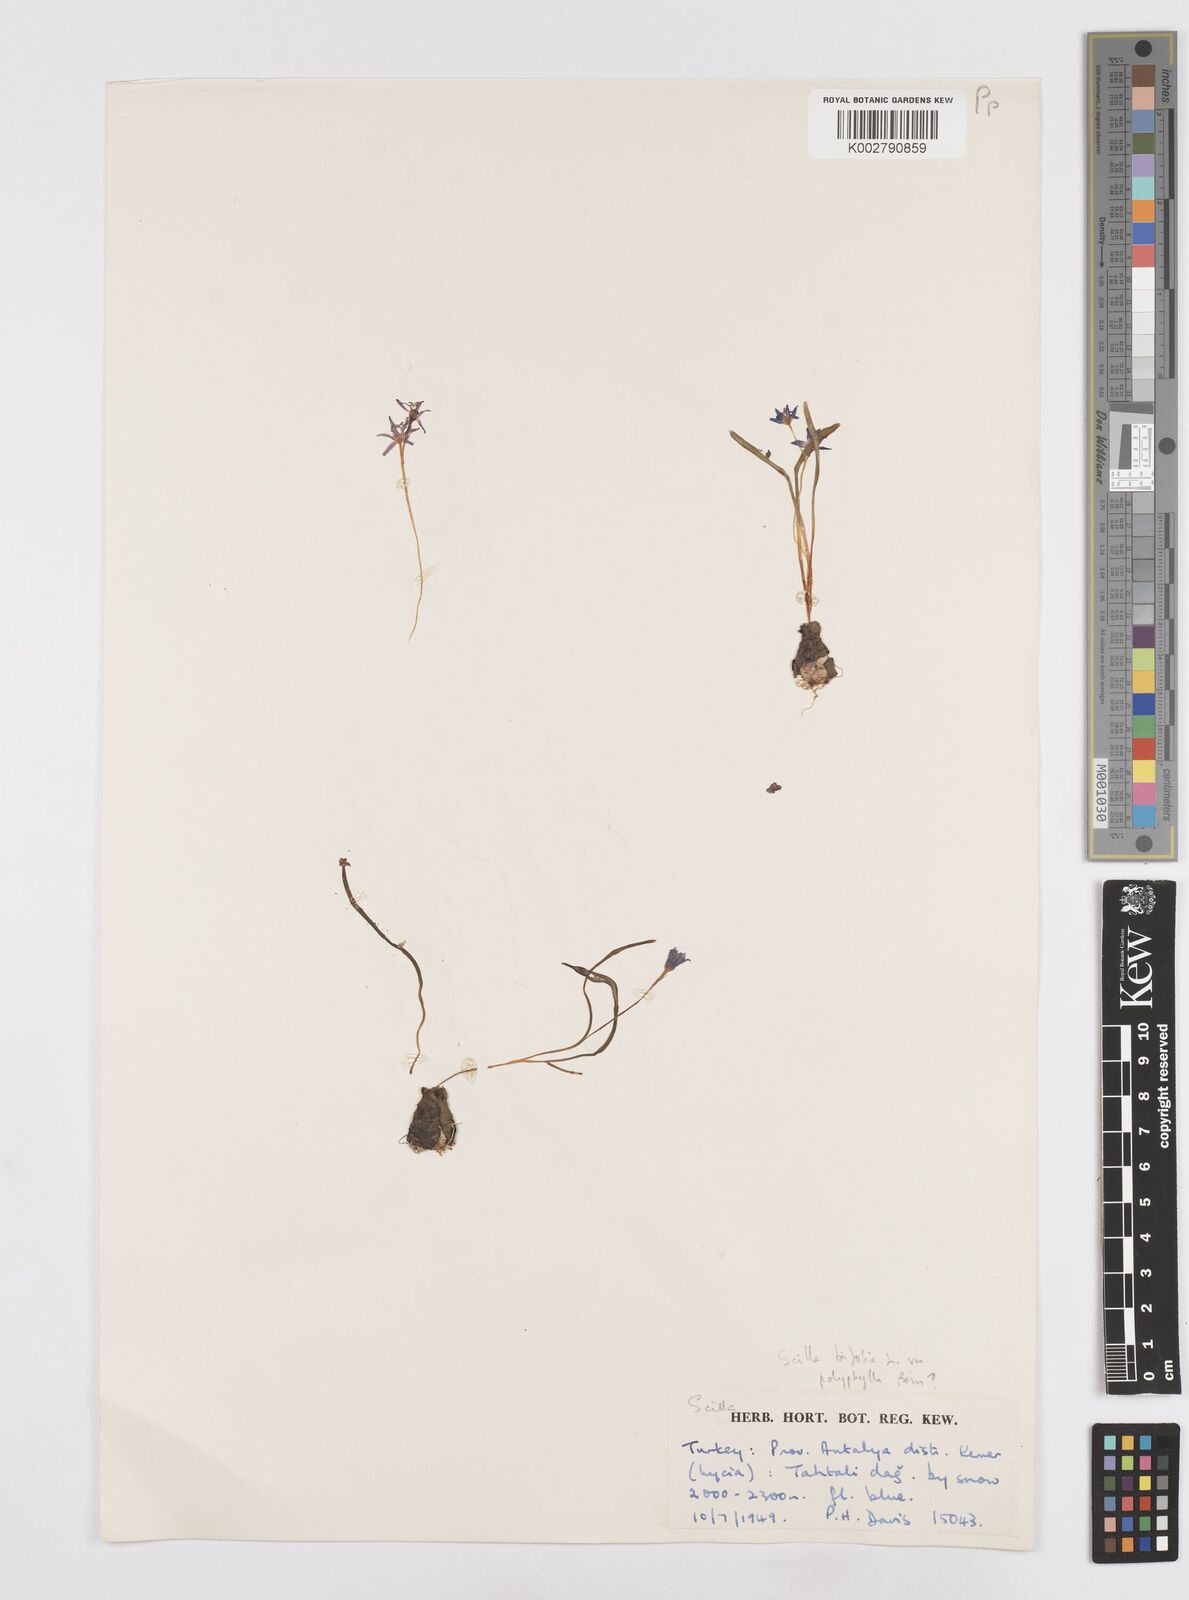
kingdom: Plantae
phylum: Tracheophyta
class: Liliopsida
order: Asparagales
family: Asparagaceae
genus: Scilla
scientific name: Scilla bifolia
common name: Alpine squill
